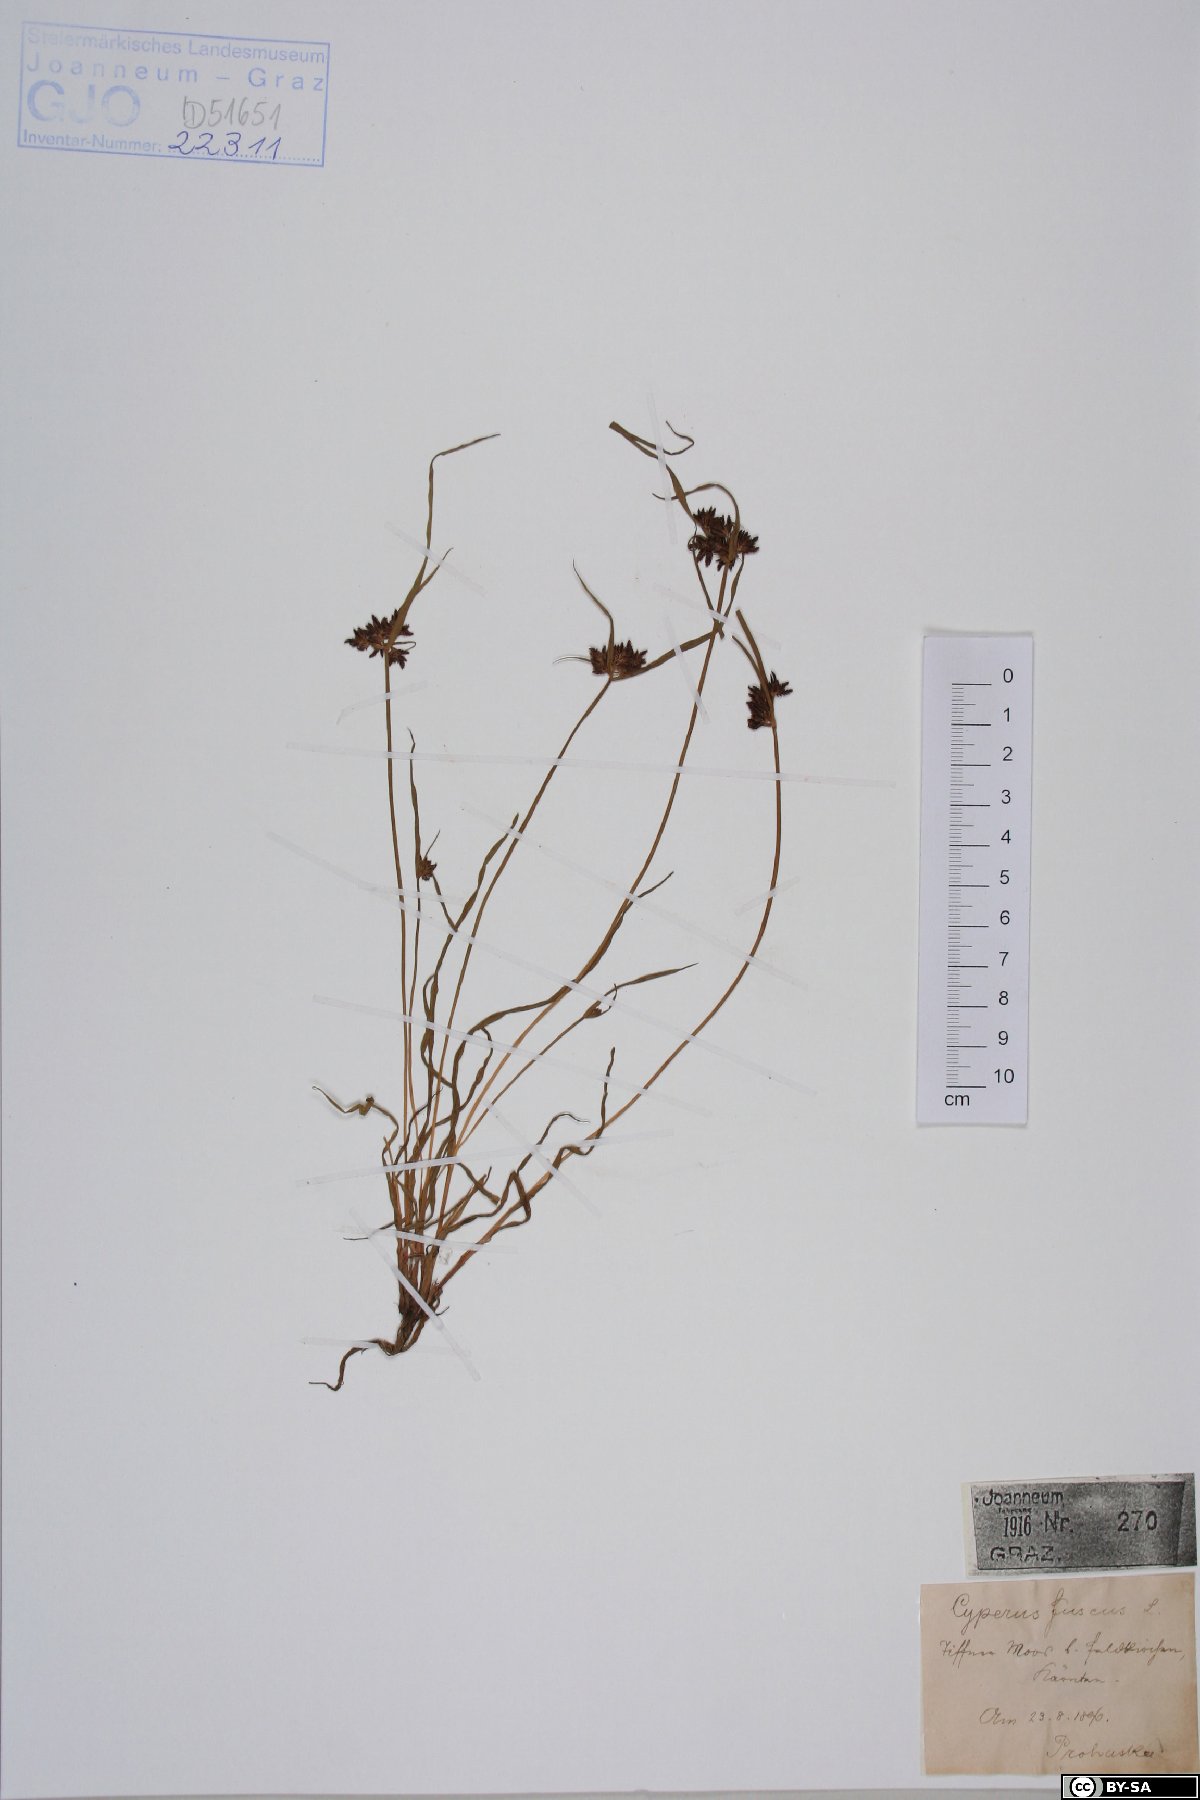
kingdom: Plantae
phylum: Tracheophyta
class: Liliopsida
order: Poales
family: Cyperaceae
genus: Cyperus
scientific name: Cyperus fuscus
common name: Brown galingale
